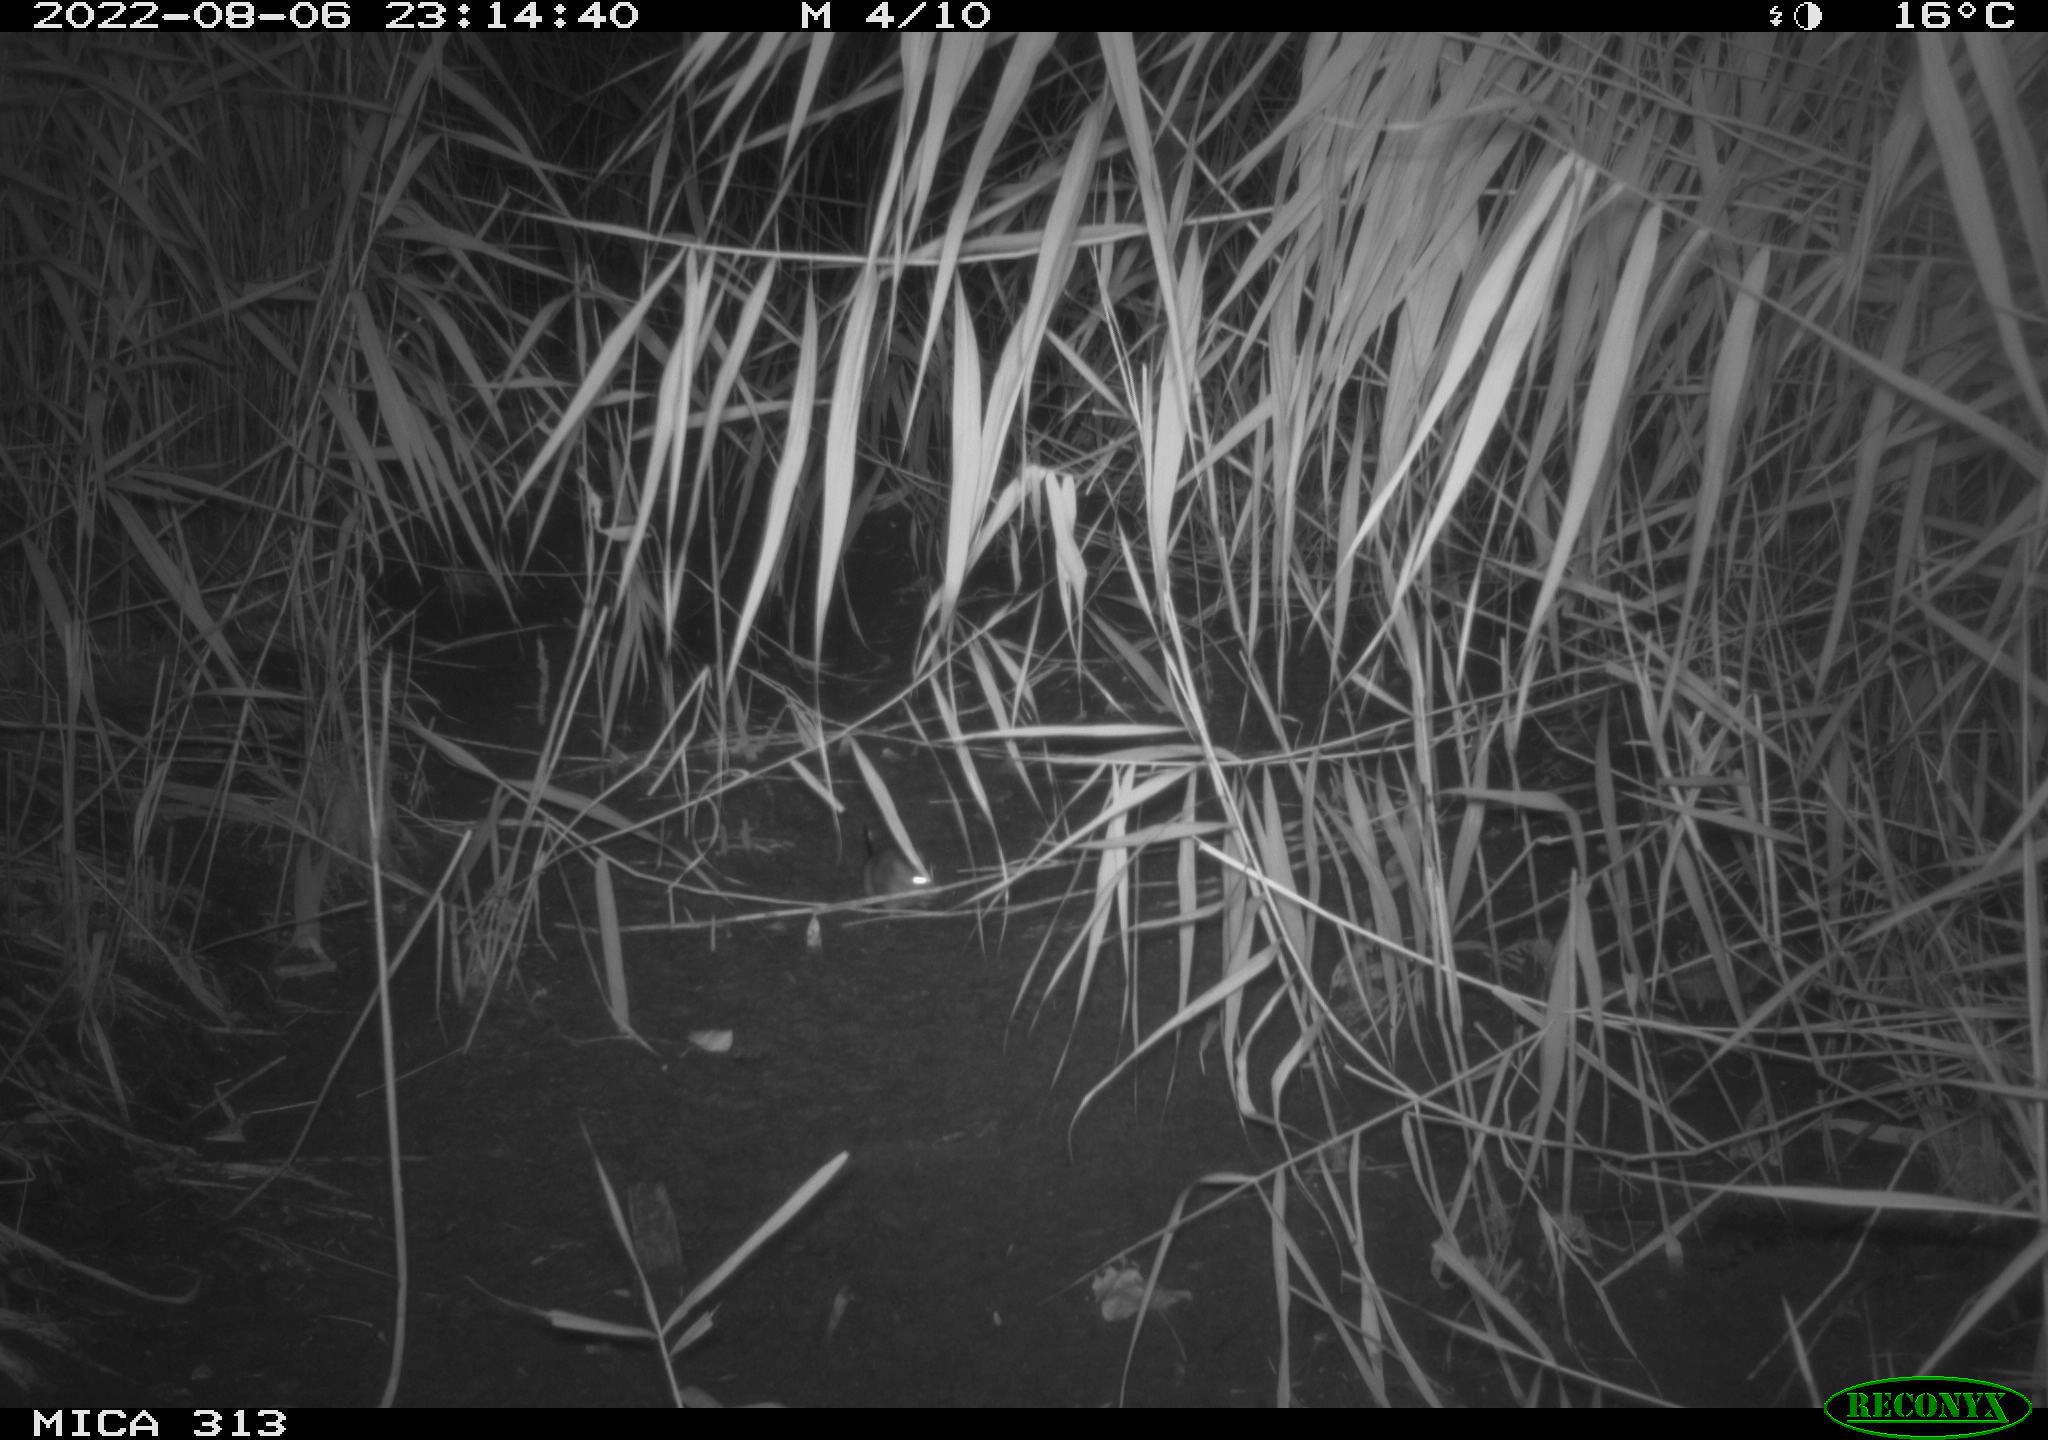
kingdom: Animalia
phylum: Chordata
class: Mammalia
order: Rodentia
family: Muridae
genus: Rattus
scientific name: Rattus norvegicus
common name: Brown rat
